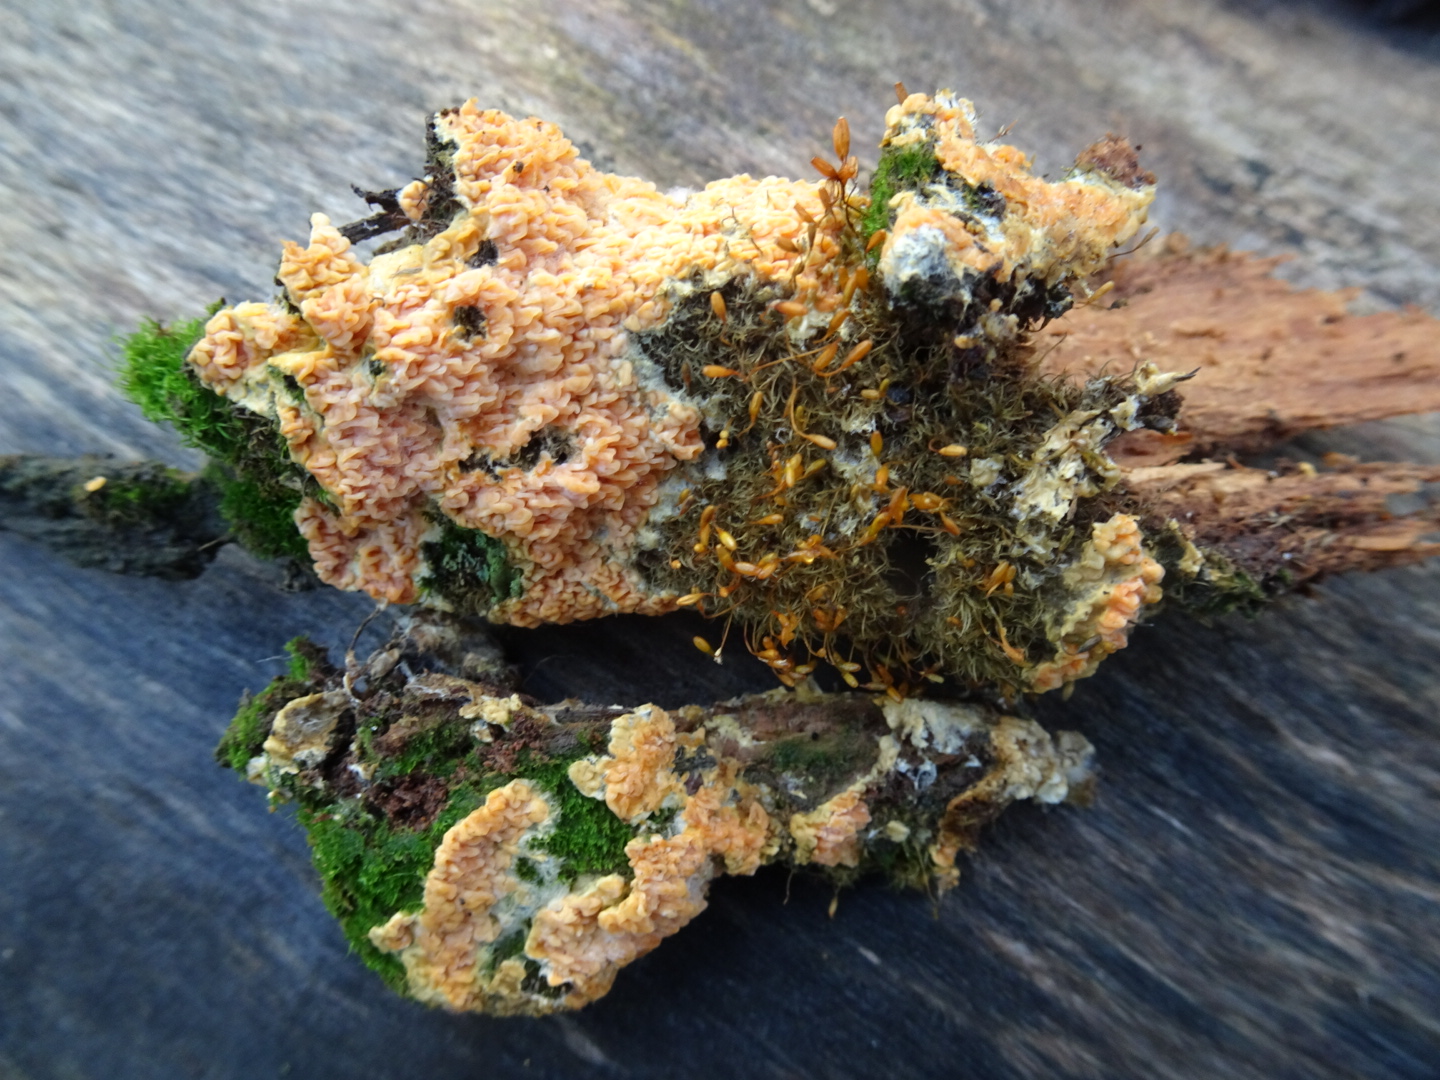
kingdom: Fungi
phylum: Basidiomycota
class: Agaricomycetes
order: Boletales
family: Hygrophoropsidaceae
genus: Leucogyrophana
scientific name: Leucogyrophana mollusca
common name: blød hussvamp
